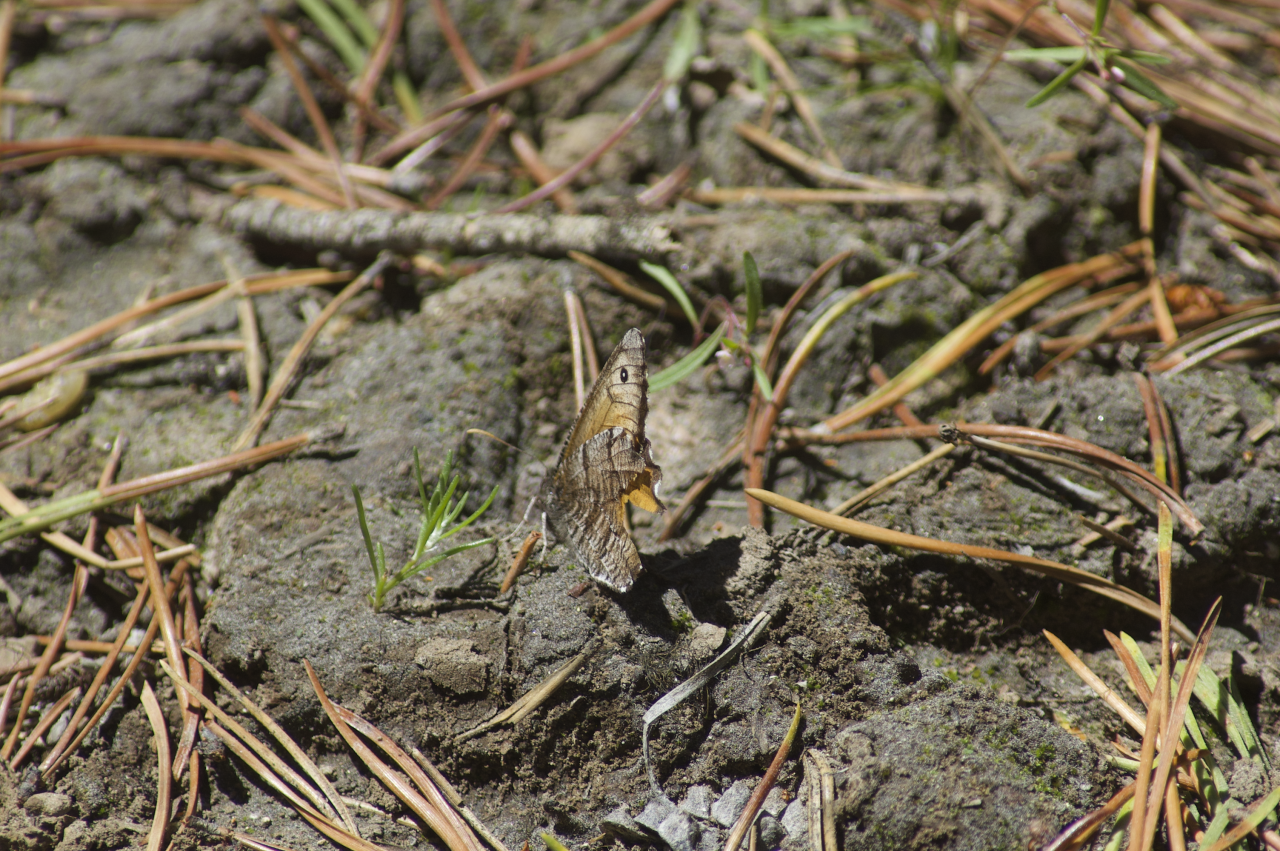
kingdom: Animalia
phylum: Arthropoda
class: Insecta
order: Lepidoptera
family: Nymphalidae
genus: Oeneis
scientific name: Oeneis nevadensis
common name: Great Arctic
